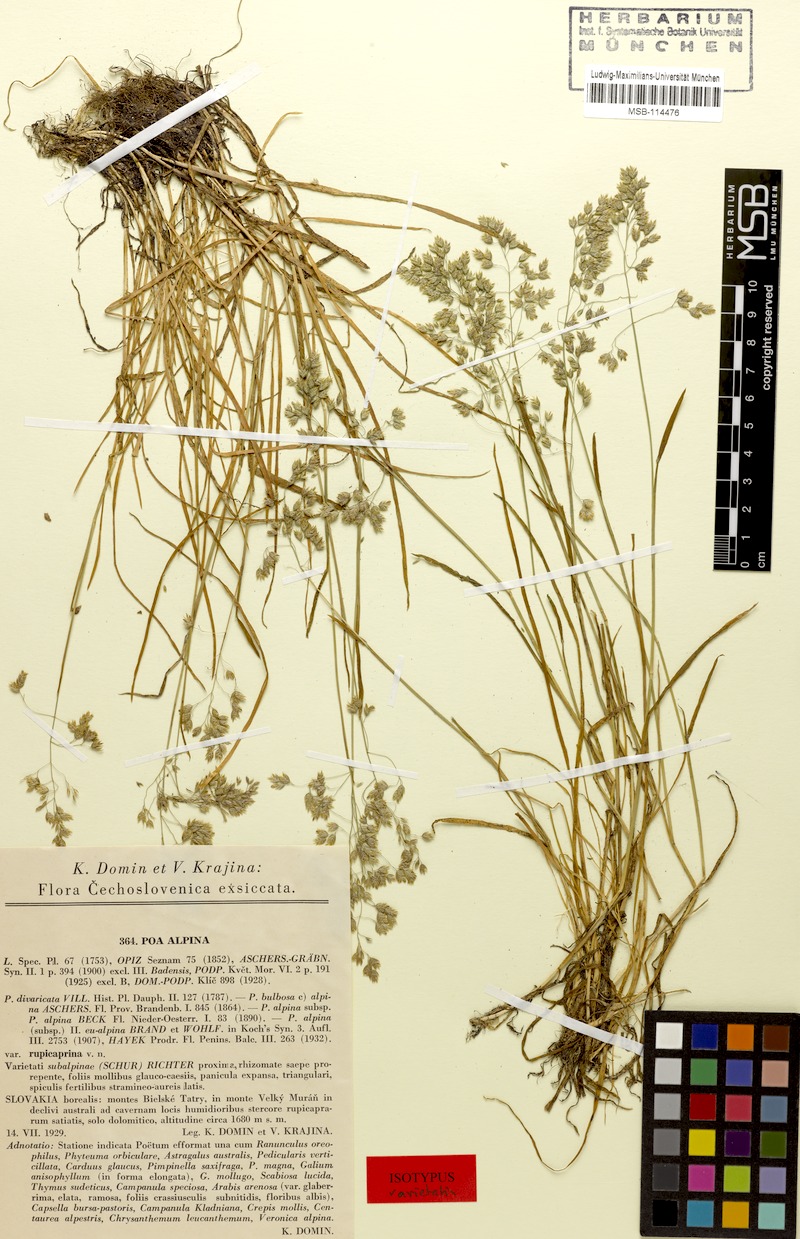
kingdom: Plantae
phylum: Tracheophyta
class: Liliopsida
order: Poales
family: Poaceae
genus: Poa
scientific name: Poa alpina
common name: Alpine bluegrass
